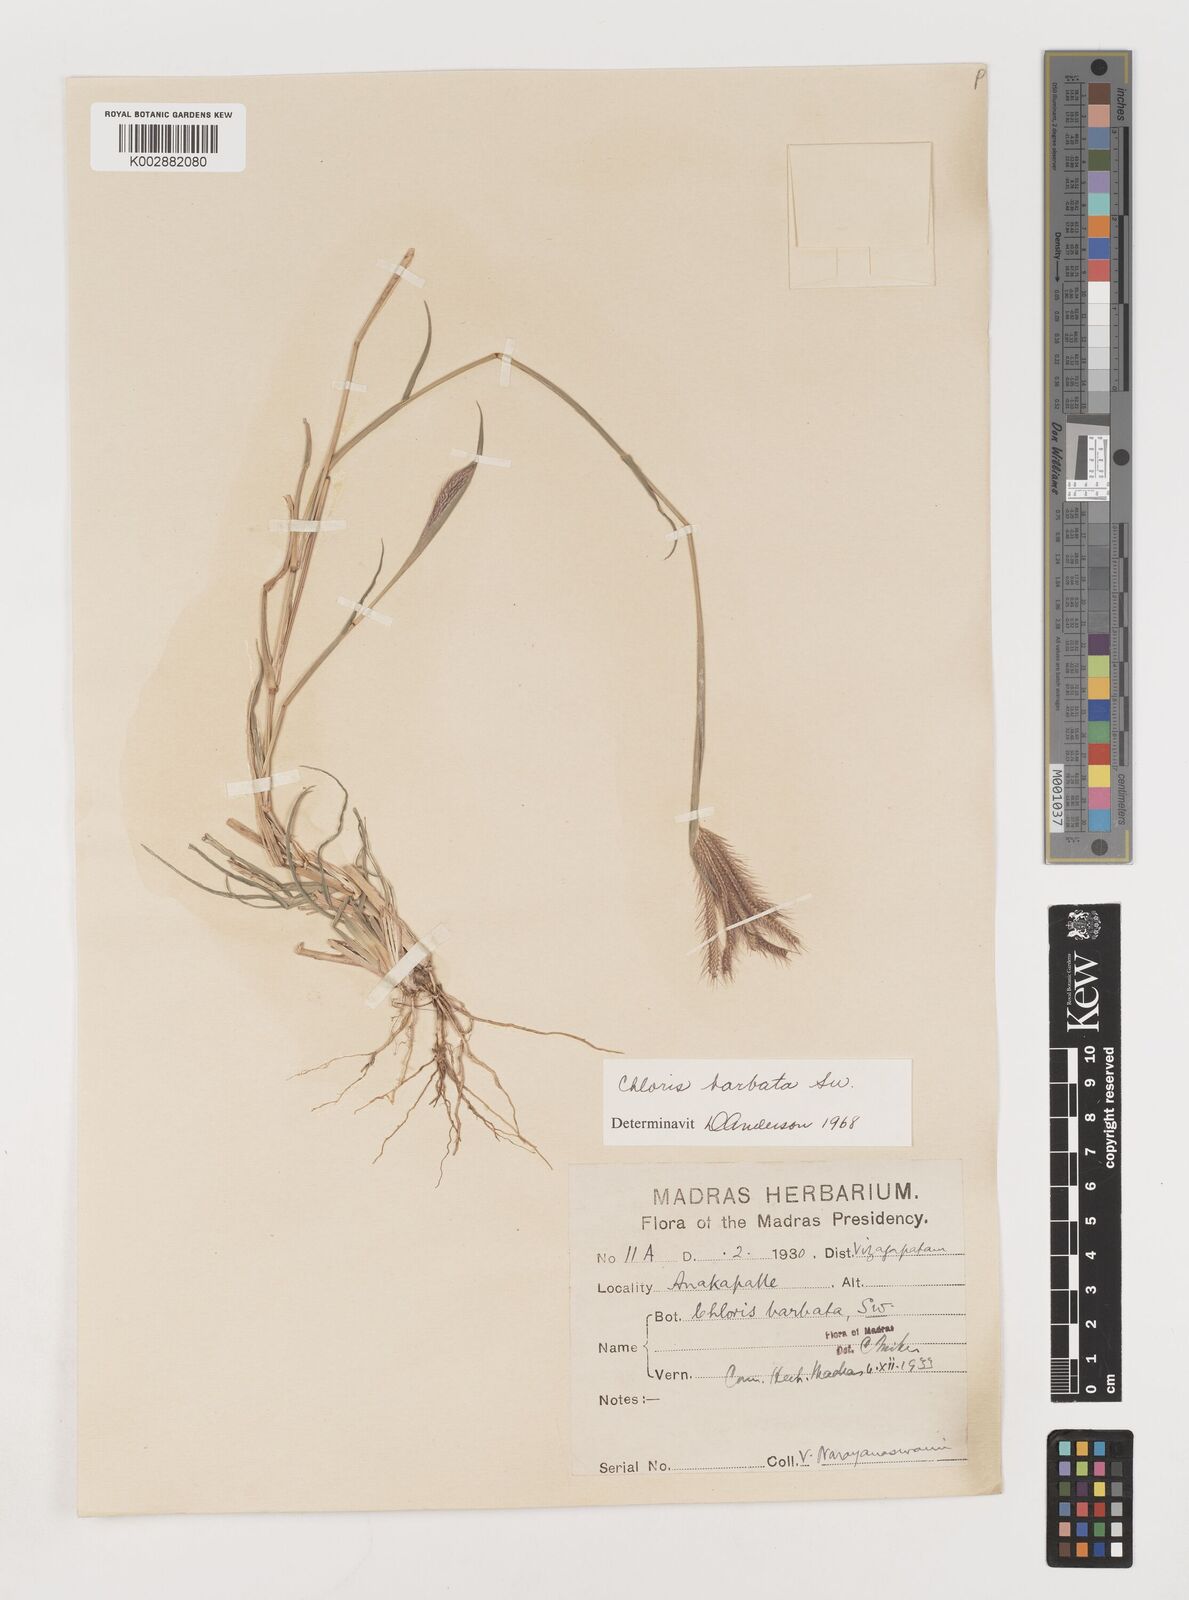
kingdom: Plantae
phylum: Tracheophyta
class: Liliopsida
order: Poales
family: Poaceae
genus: Chloris
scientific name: Chloris barbata
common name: Swollen fingergrass
